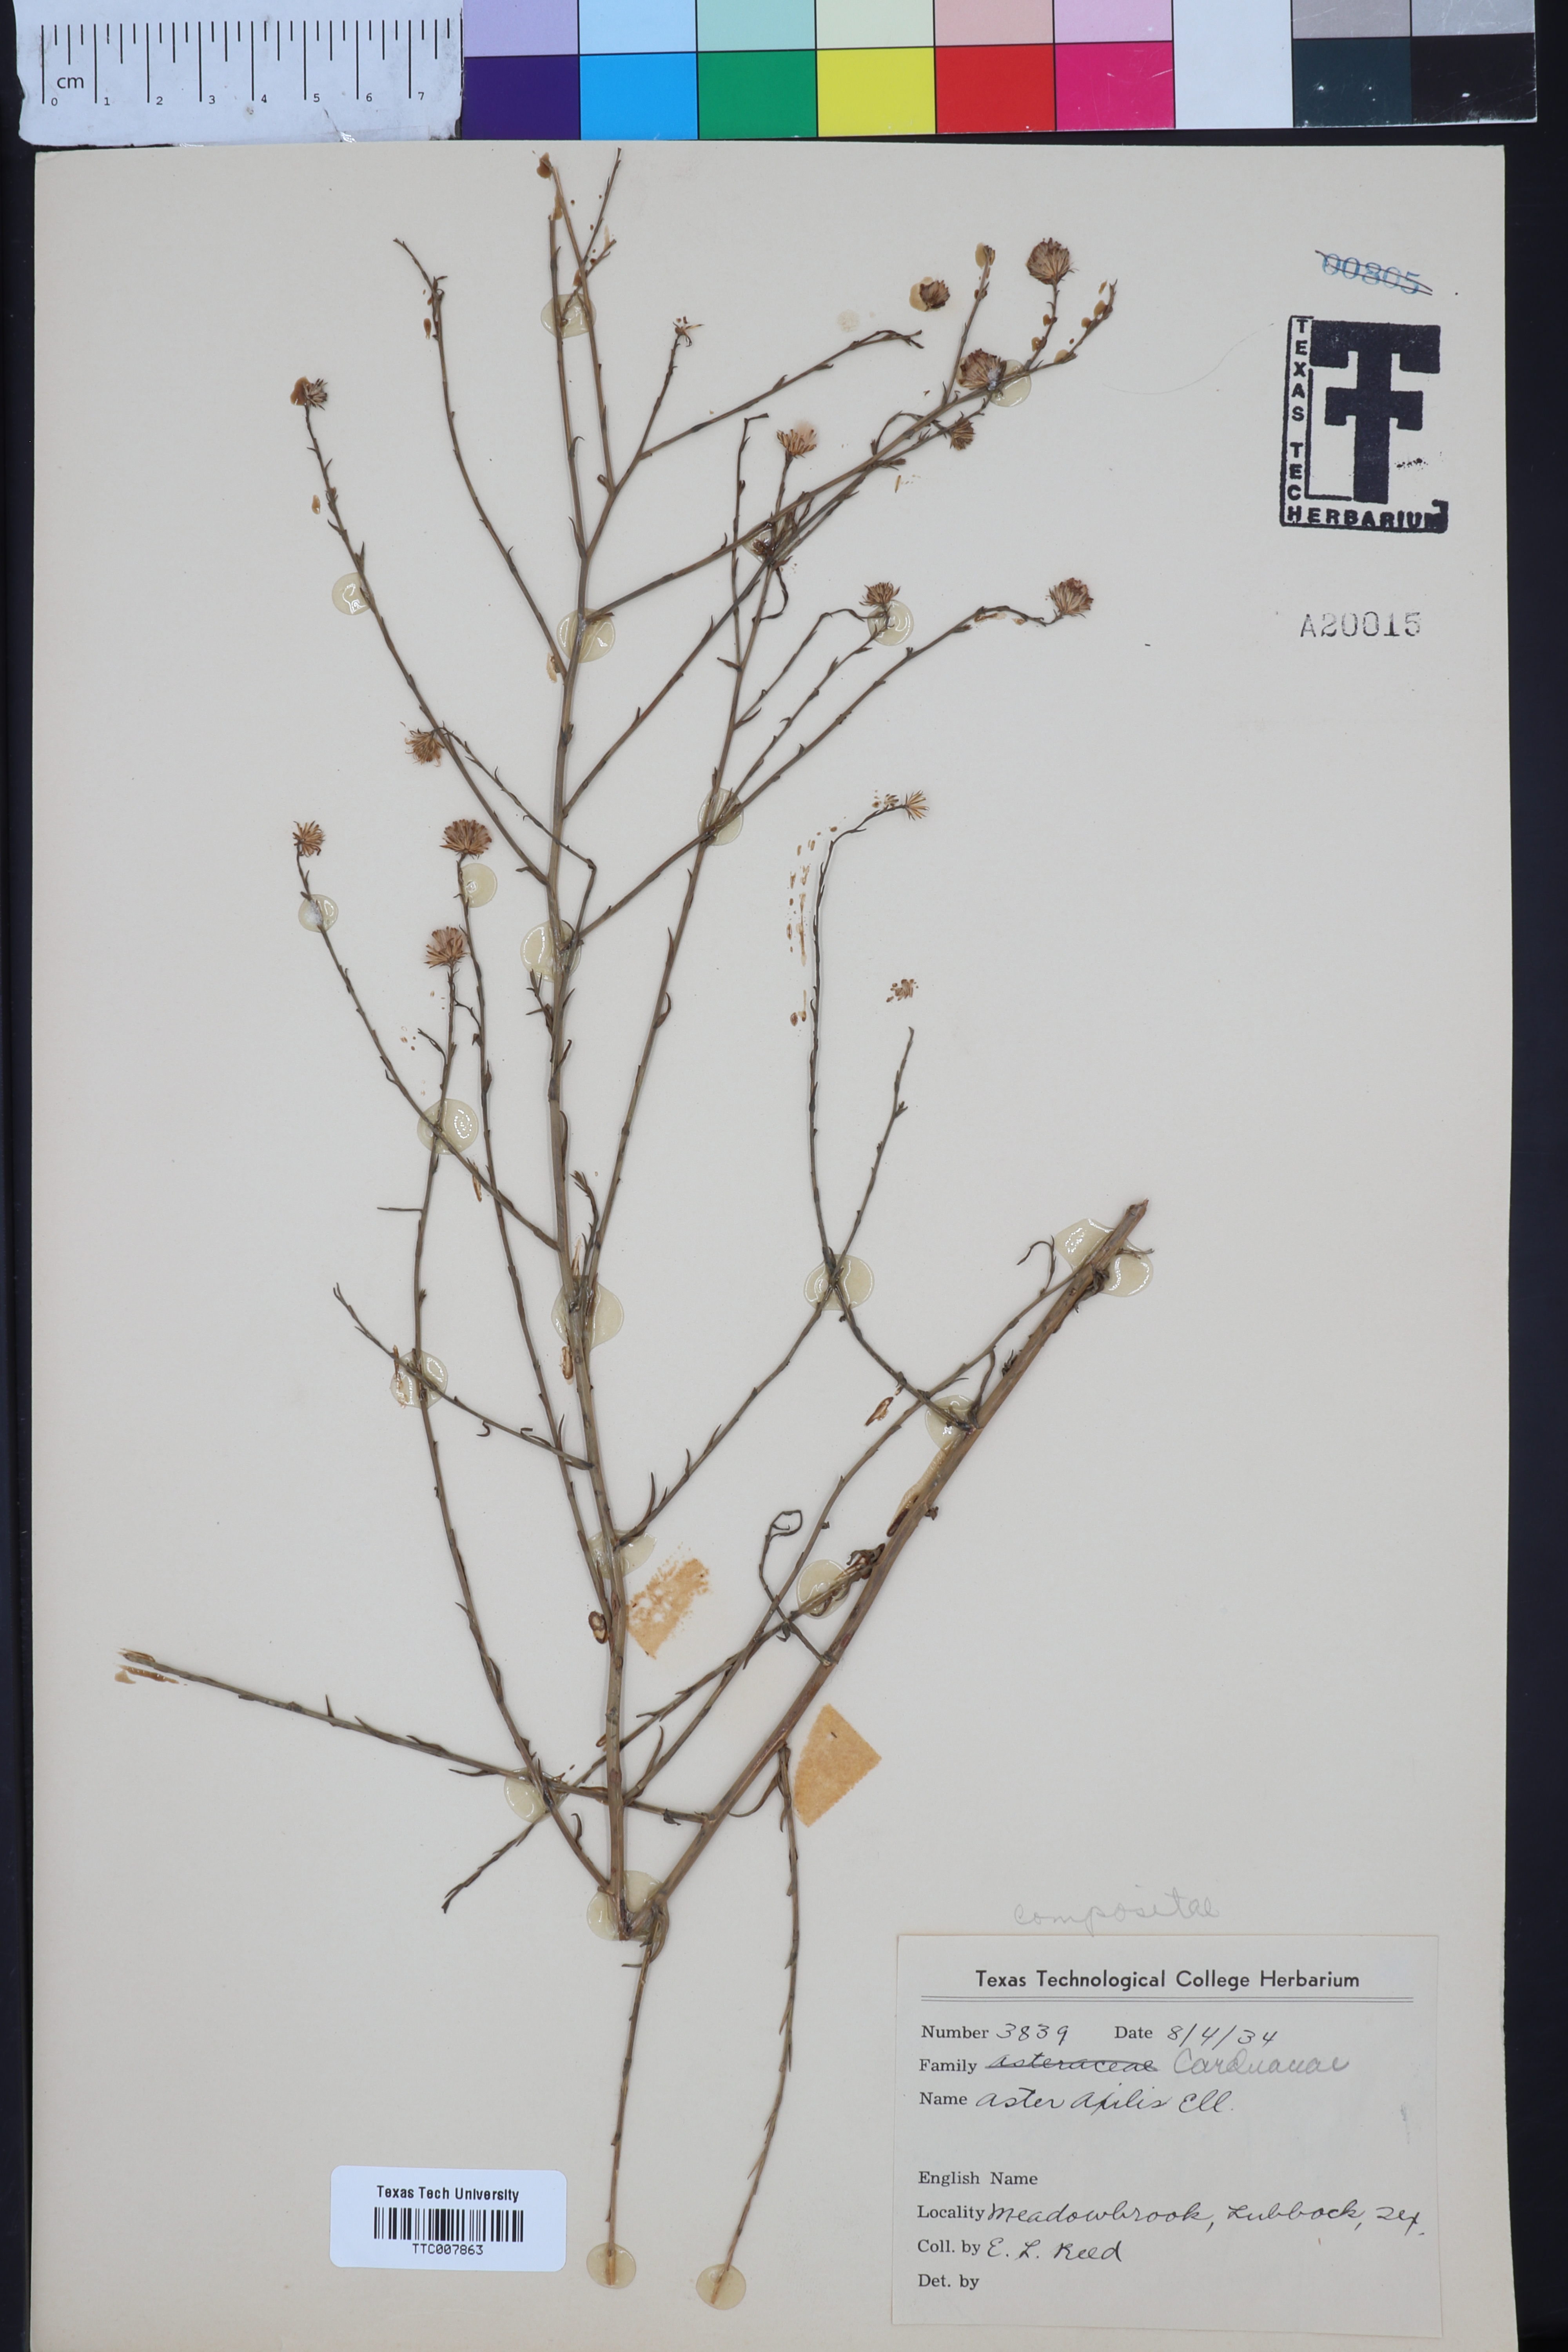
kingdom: Plantae
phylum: Tracheophyta
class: Magnoliopsida
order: Asterales
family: Asteraceae
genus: Olearia
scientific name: Olearia axillaris
